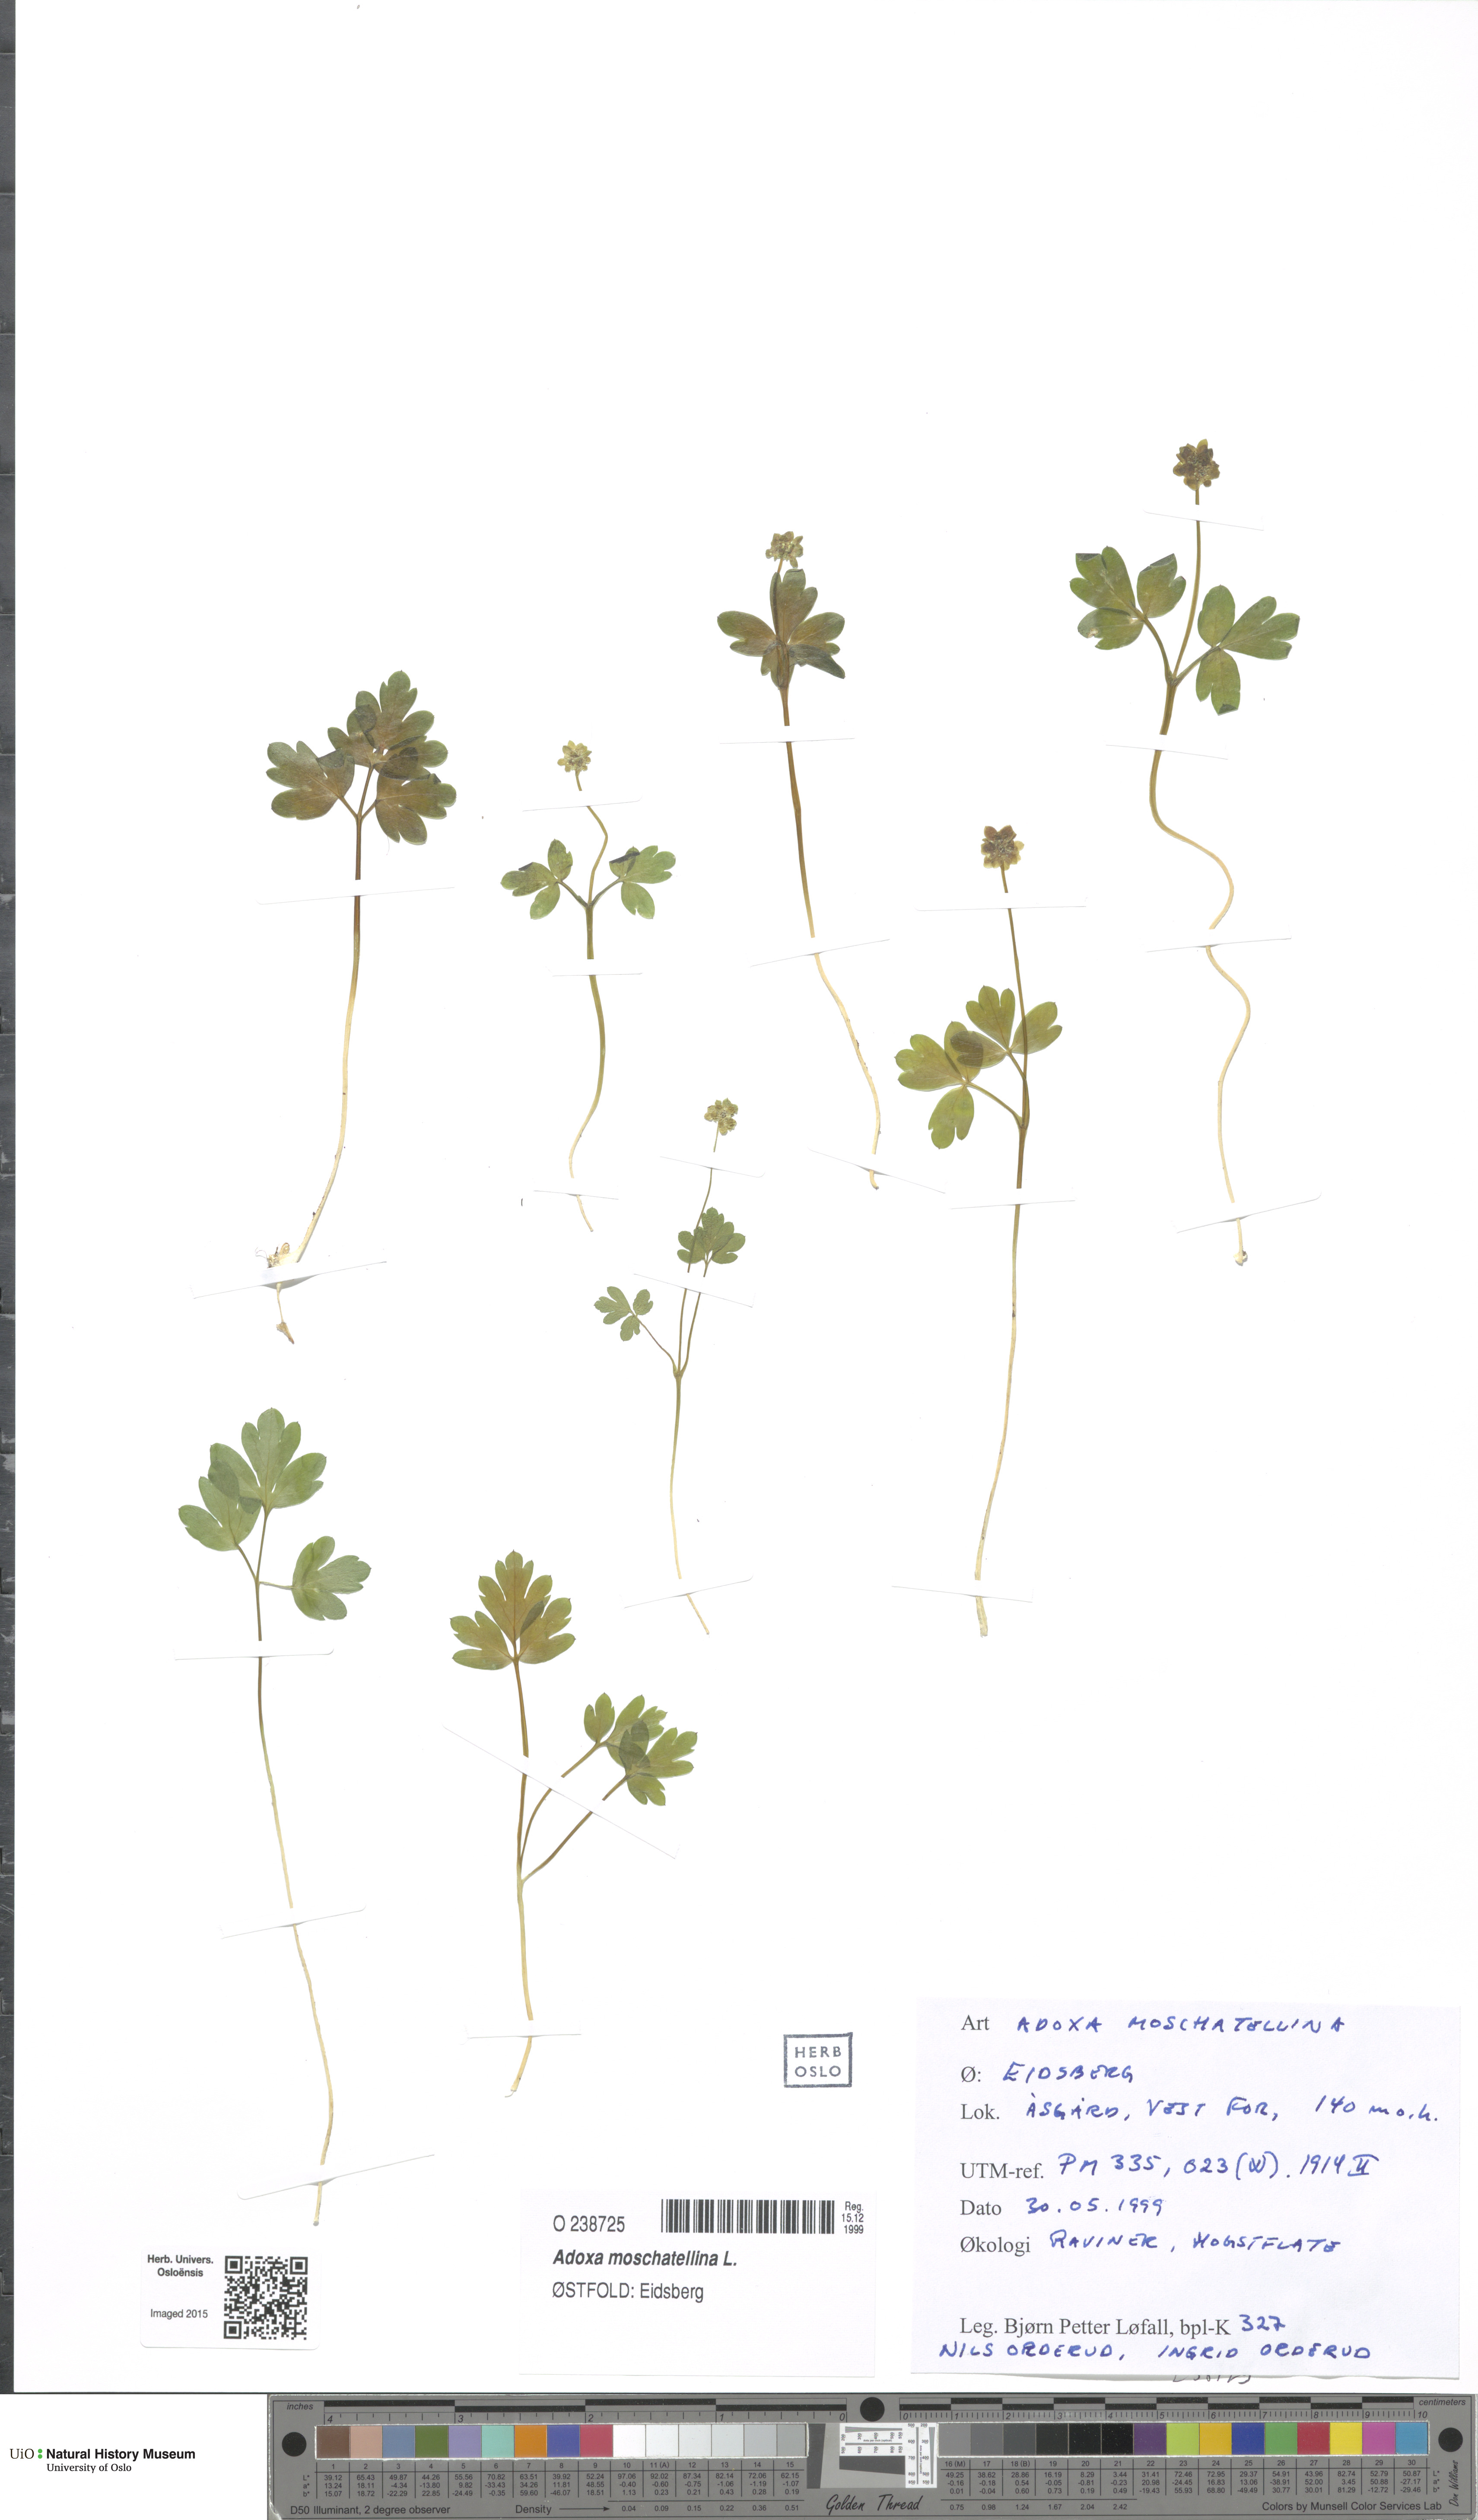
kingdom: Plantae
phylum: Tracheophyta
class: Magnoliopsida
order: Dipsacales
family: Viburnaceae
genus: Adoxa
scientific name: Adoxa moschatellina
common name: Moschatel
